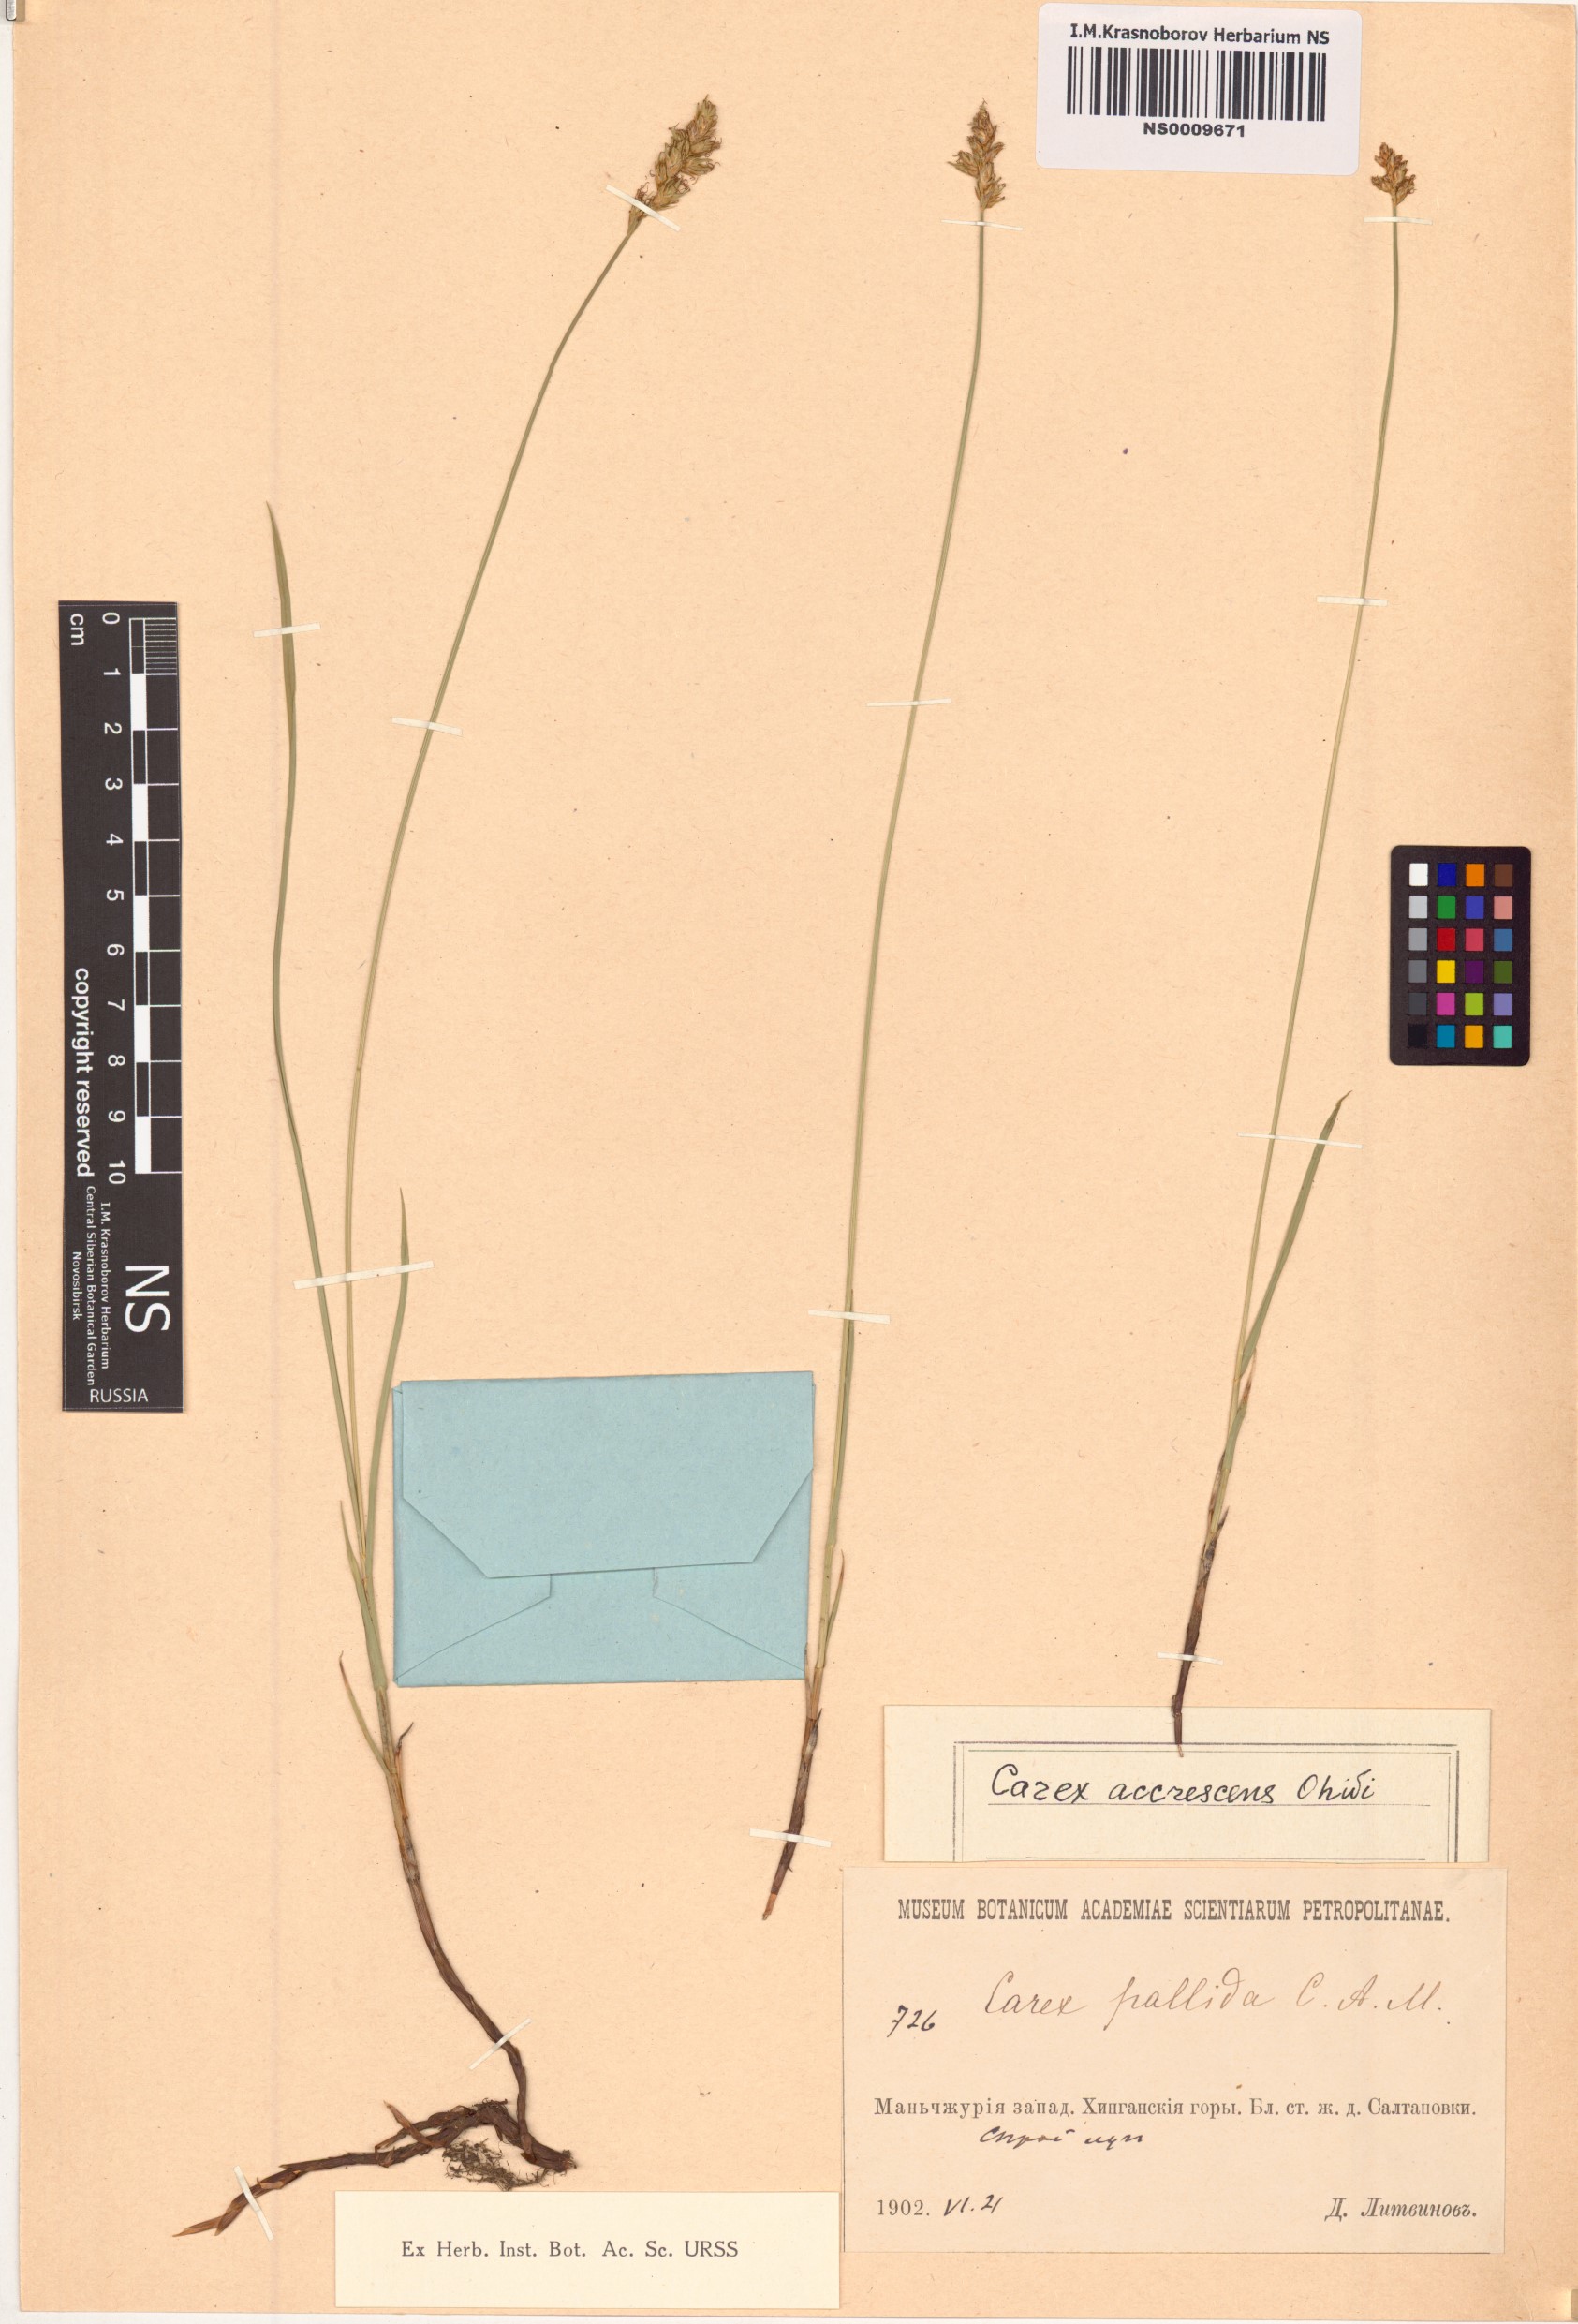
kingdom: Plantae
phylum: Tracheophyta
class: Liliopsida
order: Poales
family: Cyperaceae
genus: Carex
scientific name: Carex accrescens
